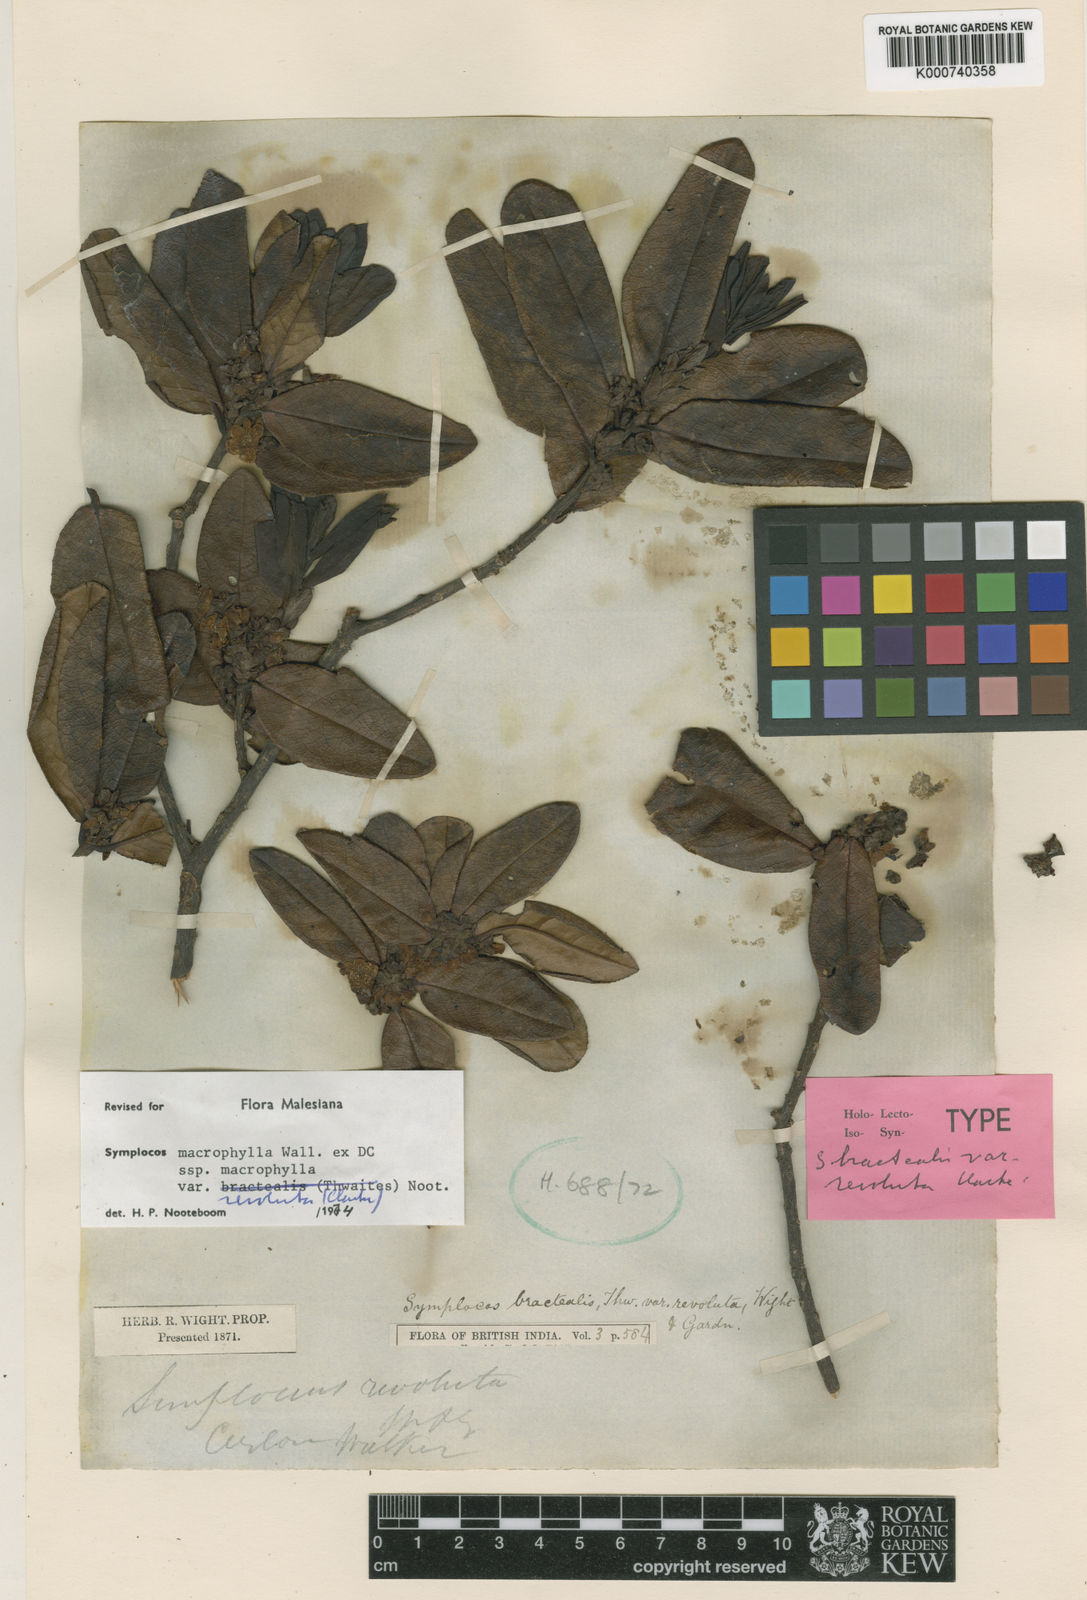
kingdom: Plantae
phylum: Tracheophyta
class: Magnoliopsida
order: Ericales
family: Symplocaceae
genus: Symplocos
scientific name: Symplocos
